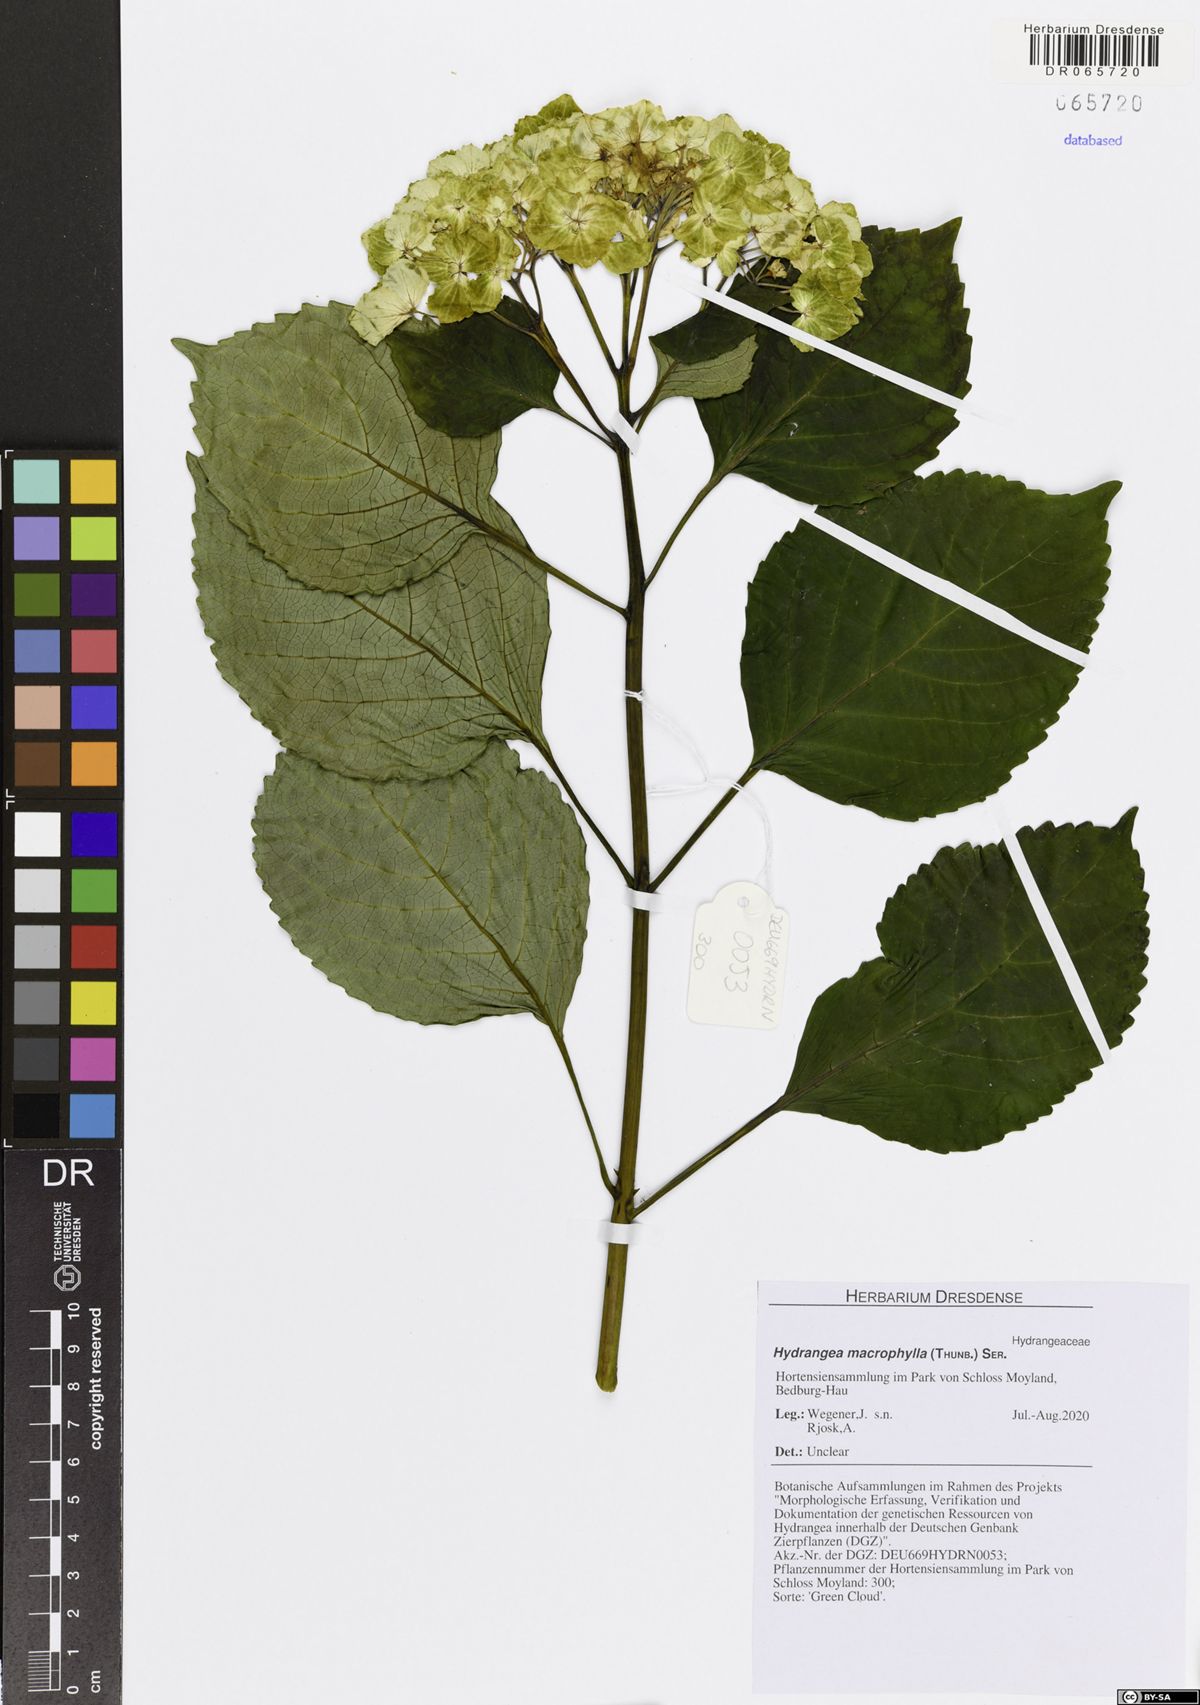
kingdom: Plantae
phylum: Tracheophyta
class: Magnoliopsida
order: Cornales
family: Hydrangeaceae
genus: Hydrangea
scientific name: Hydrangea macrophylla
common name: Hydrangea
